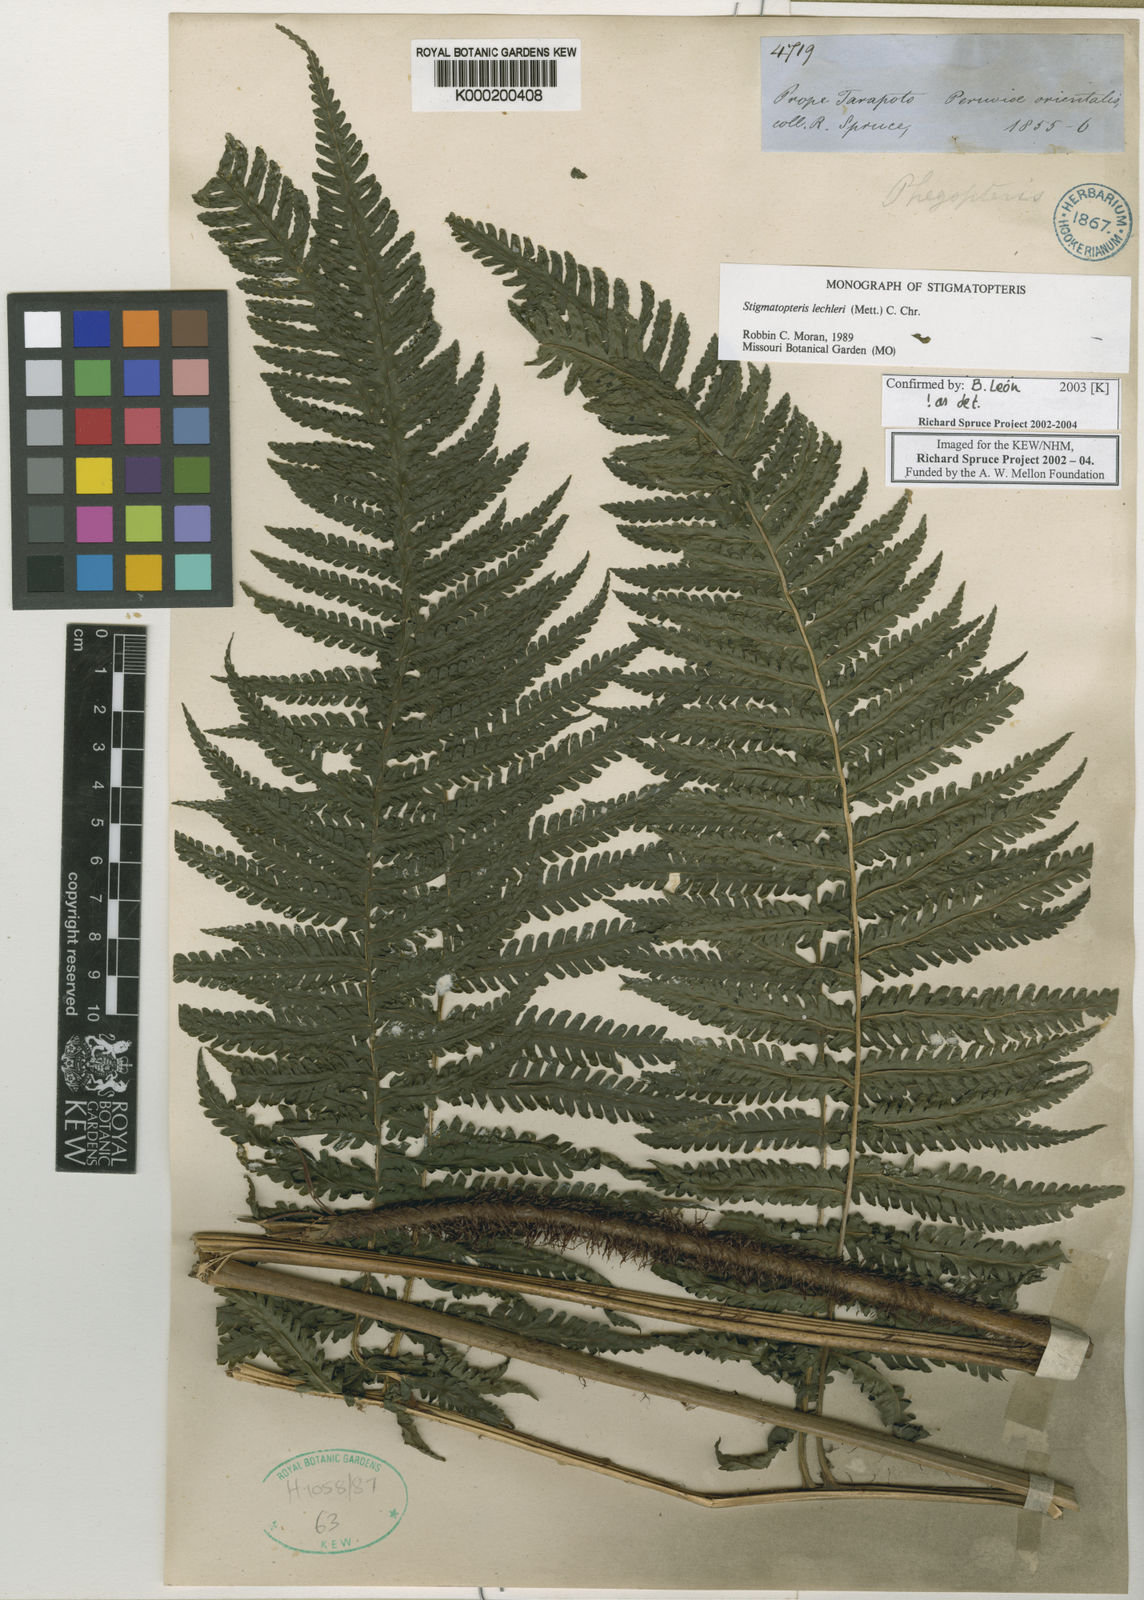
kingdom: Plantae
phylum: Tracheophyta
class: Polypodiopsida
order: Polypodiales
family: Dryopteridaceae
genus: Stigmatopteris
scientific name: Stigmatopteris lechleri
